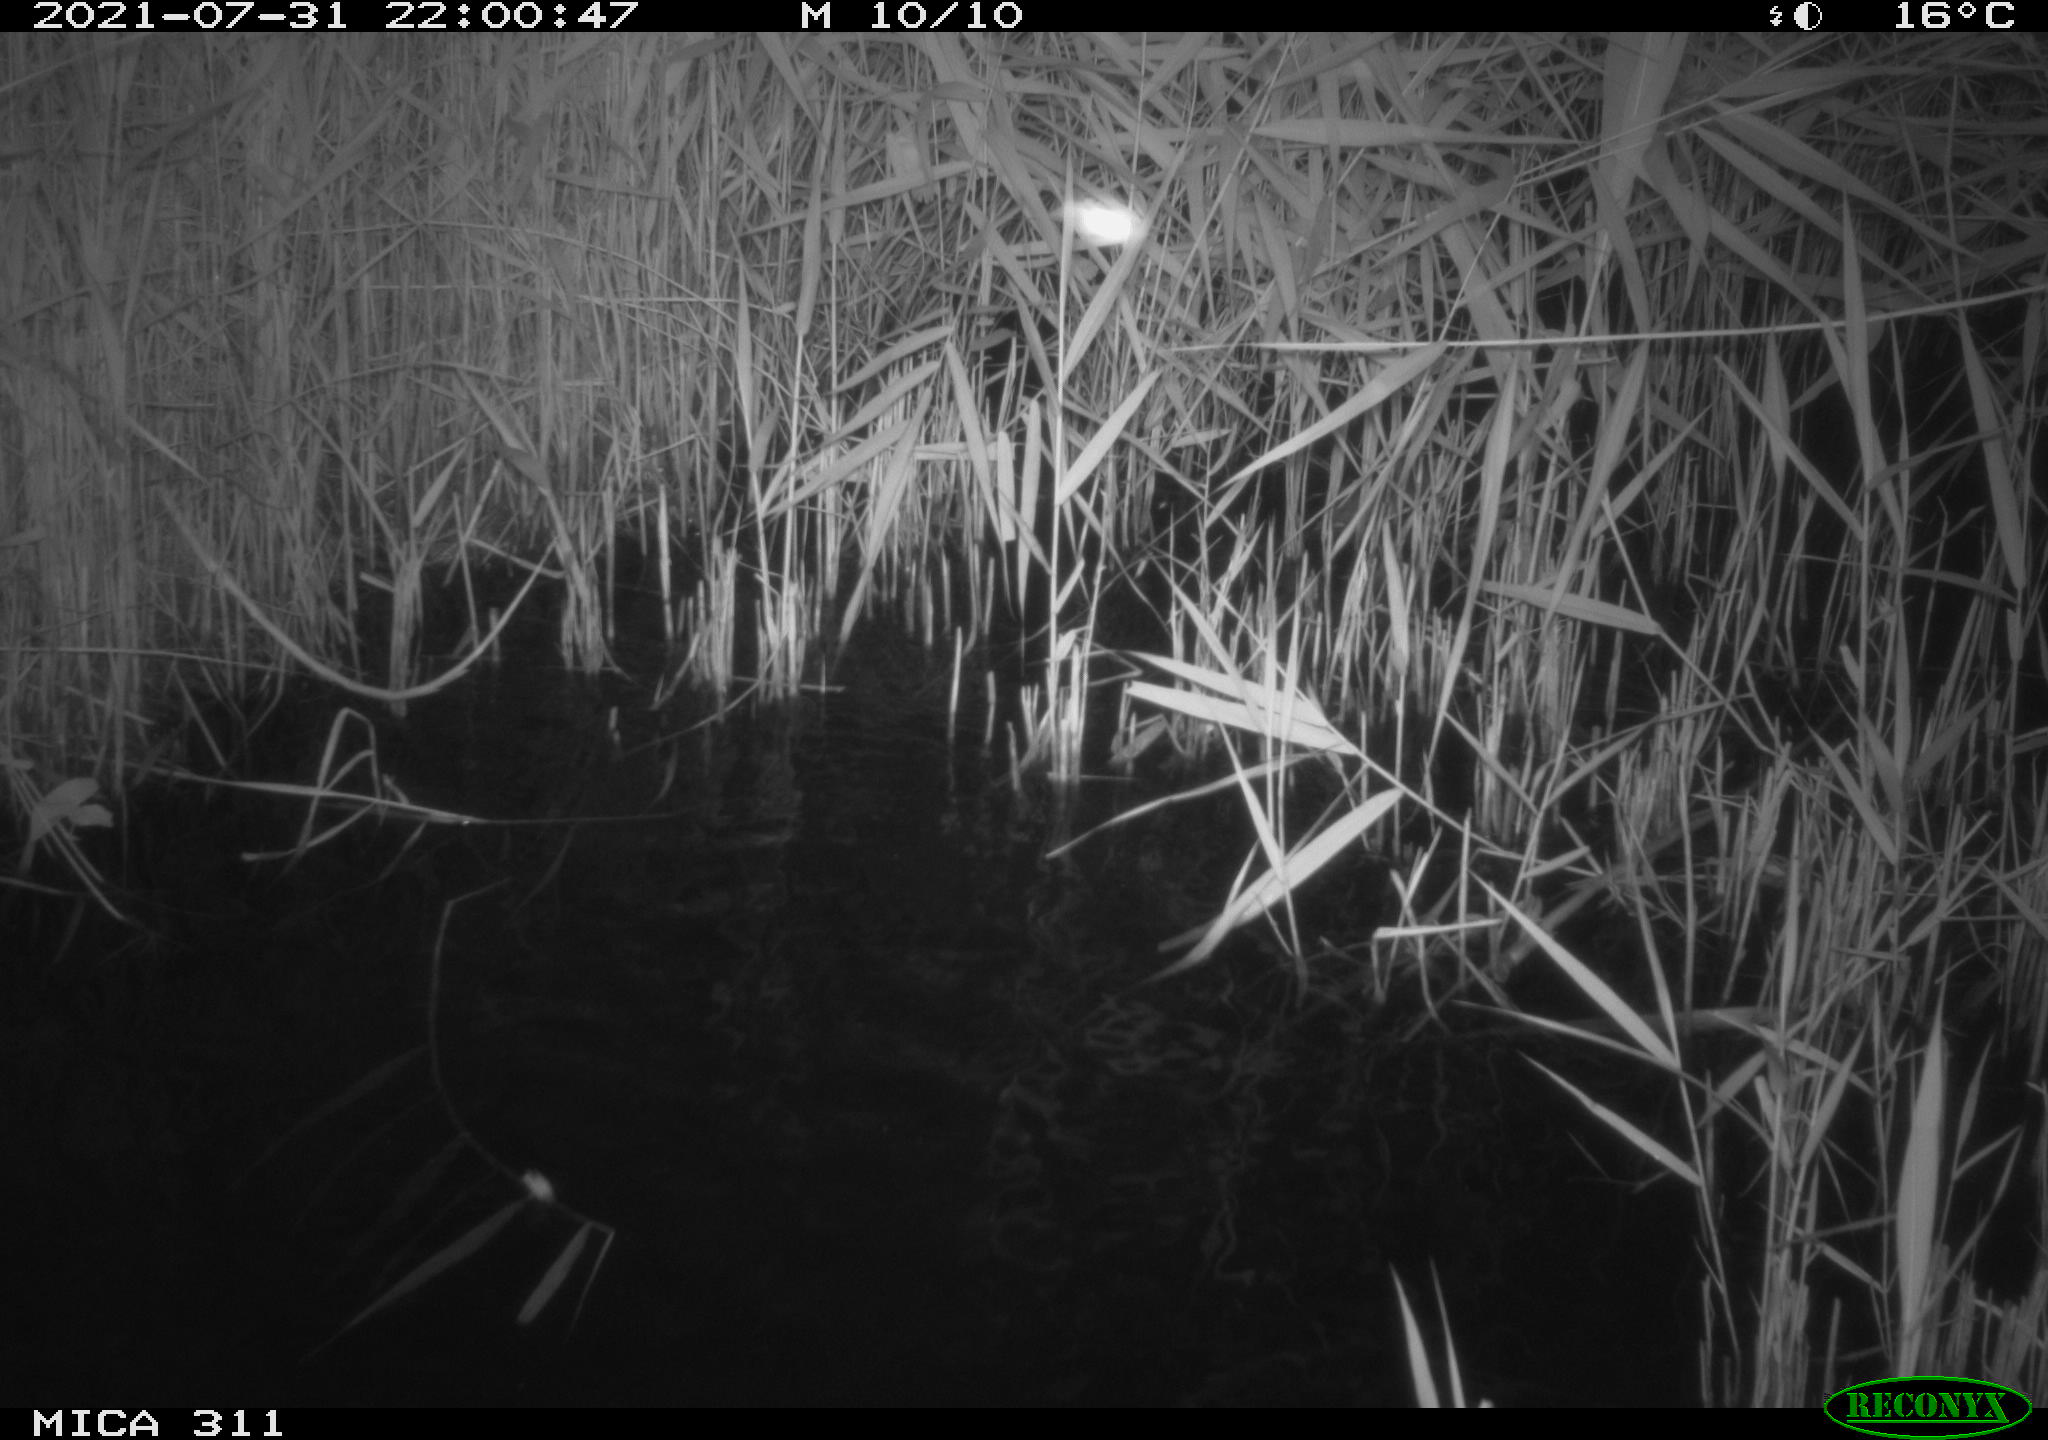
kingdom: Animalia
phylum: Chordata
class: Mammalia
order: Rodentia
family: Muridae
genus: Rattus
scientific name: Rattus norvegicus
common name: Brown rat
